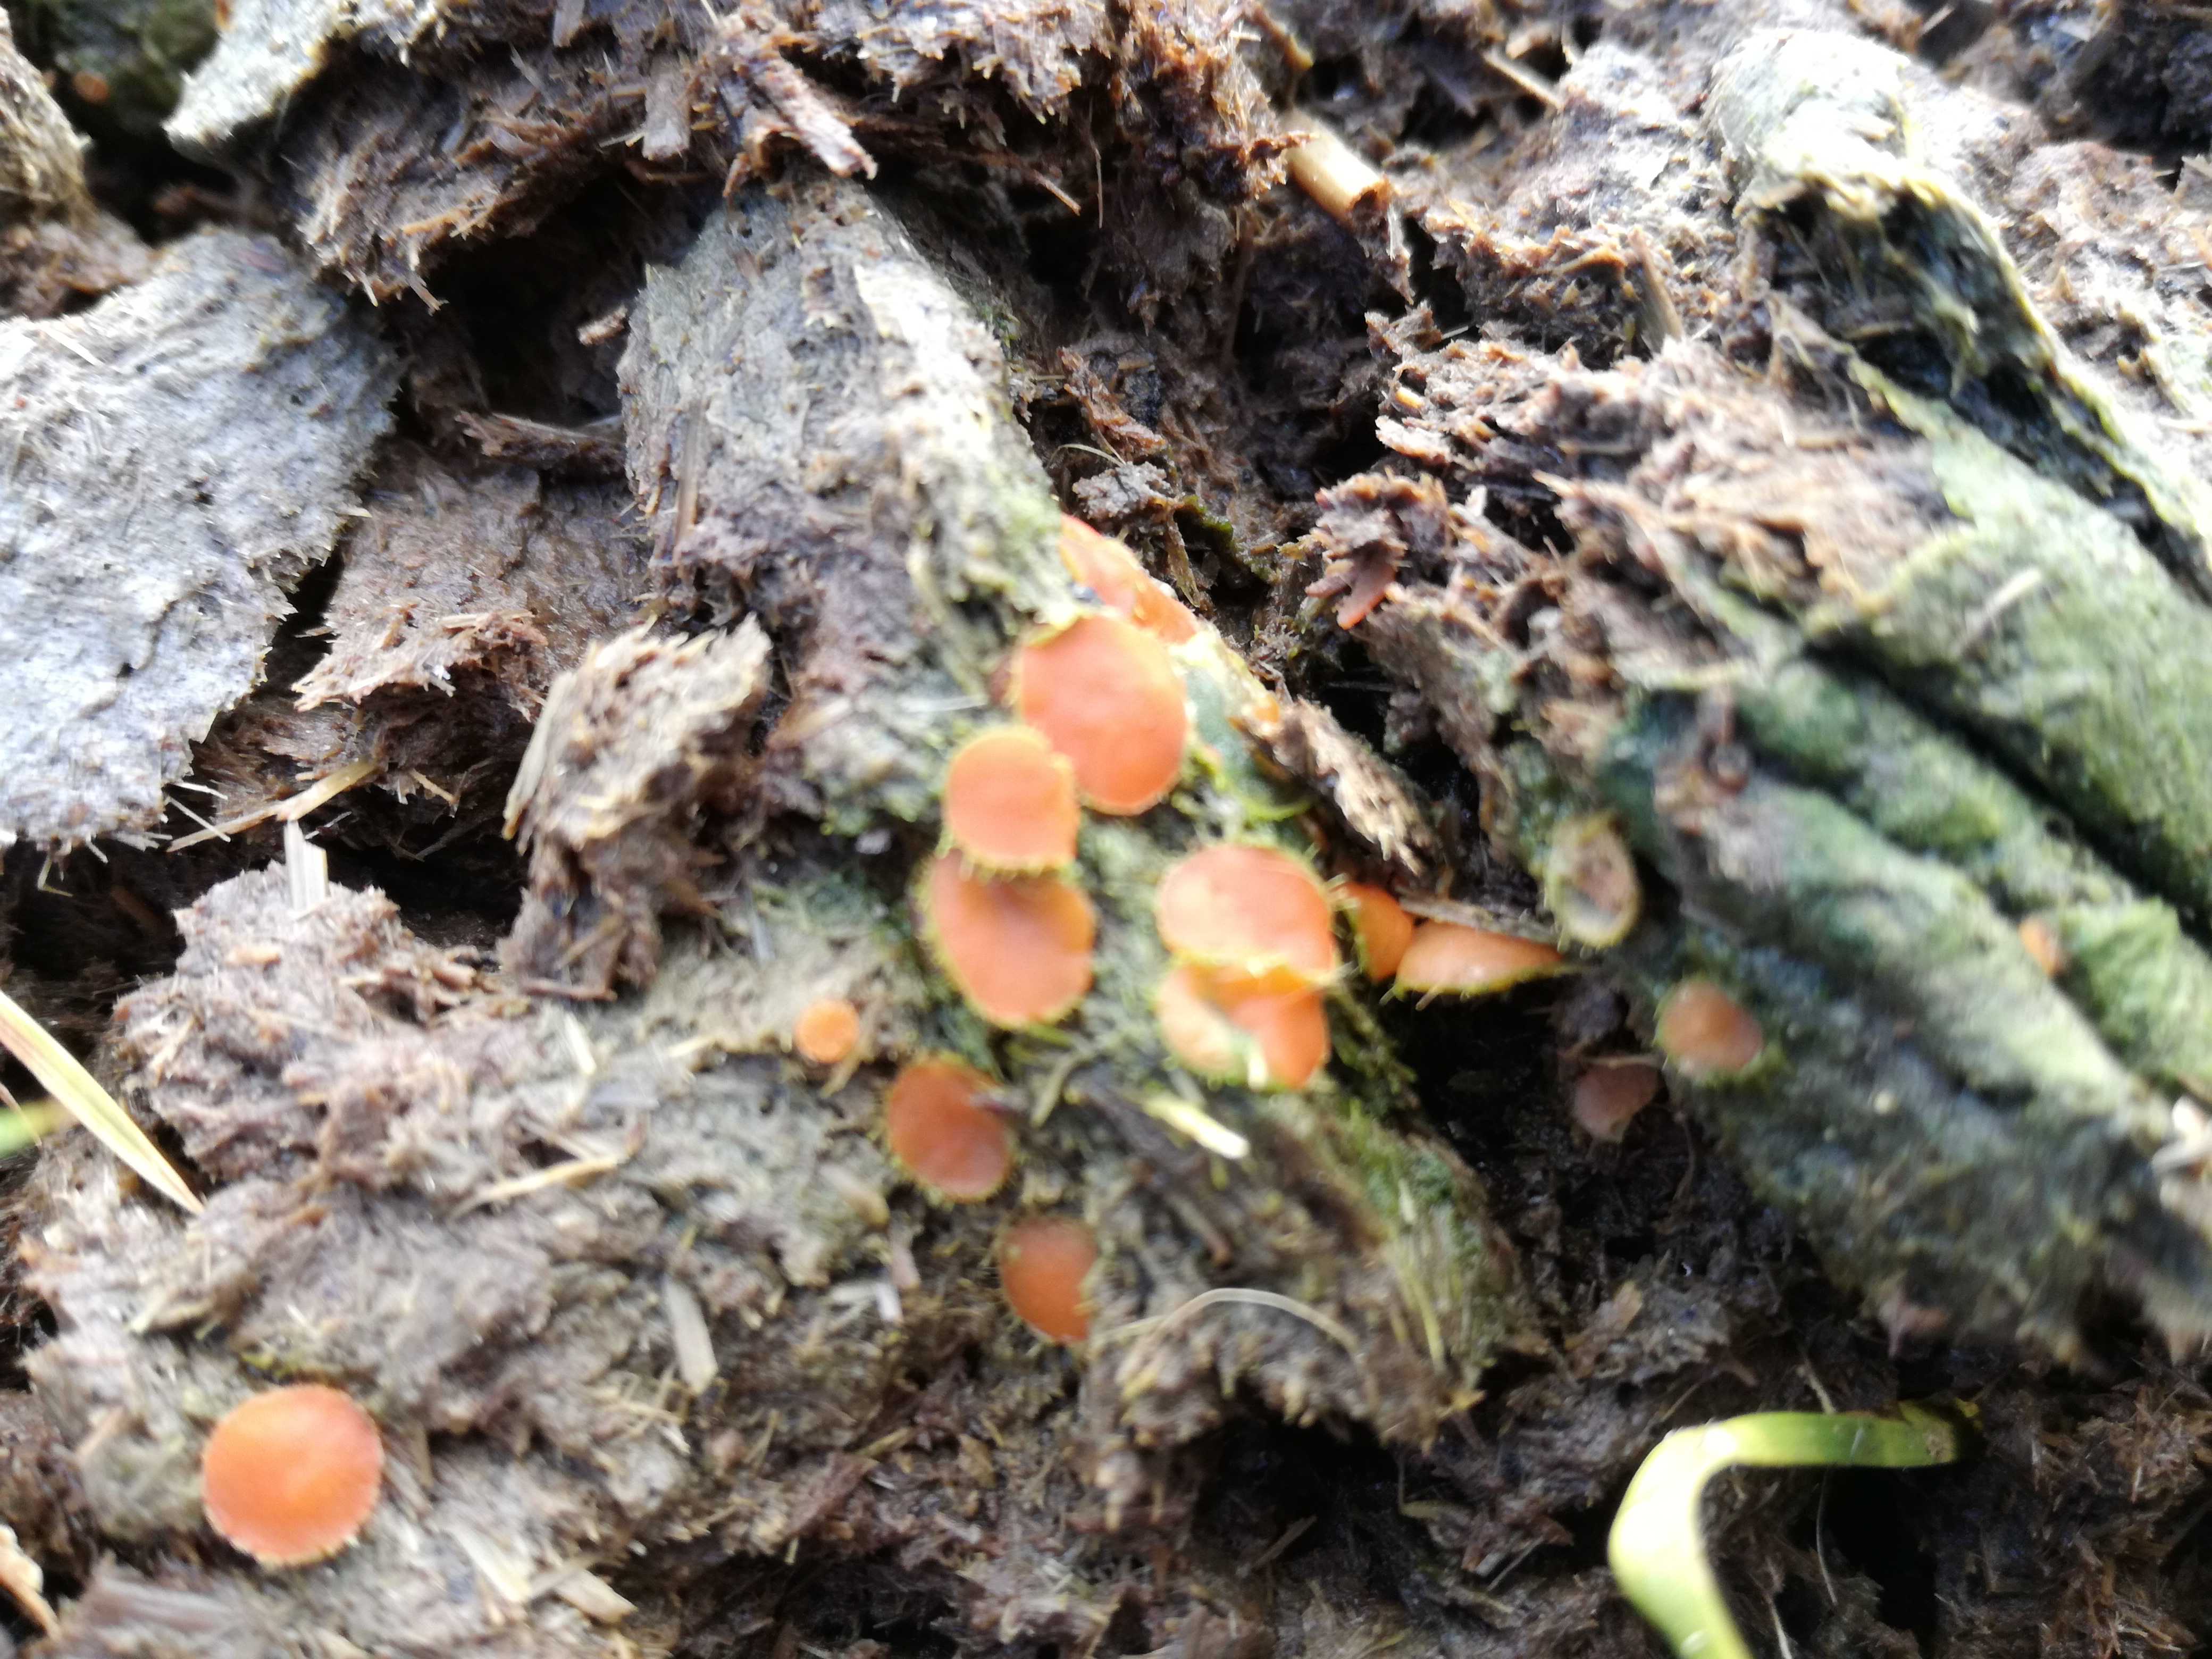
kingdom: Fungi
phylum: Ascomycota
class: Pezizomycetes
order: Pezizales
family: Pyronemataceae
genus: Cheilymenia
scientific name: Cheilymenia
